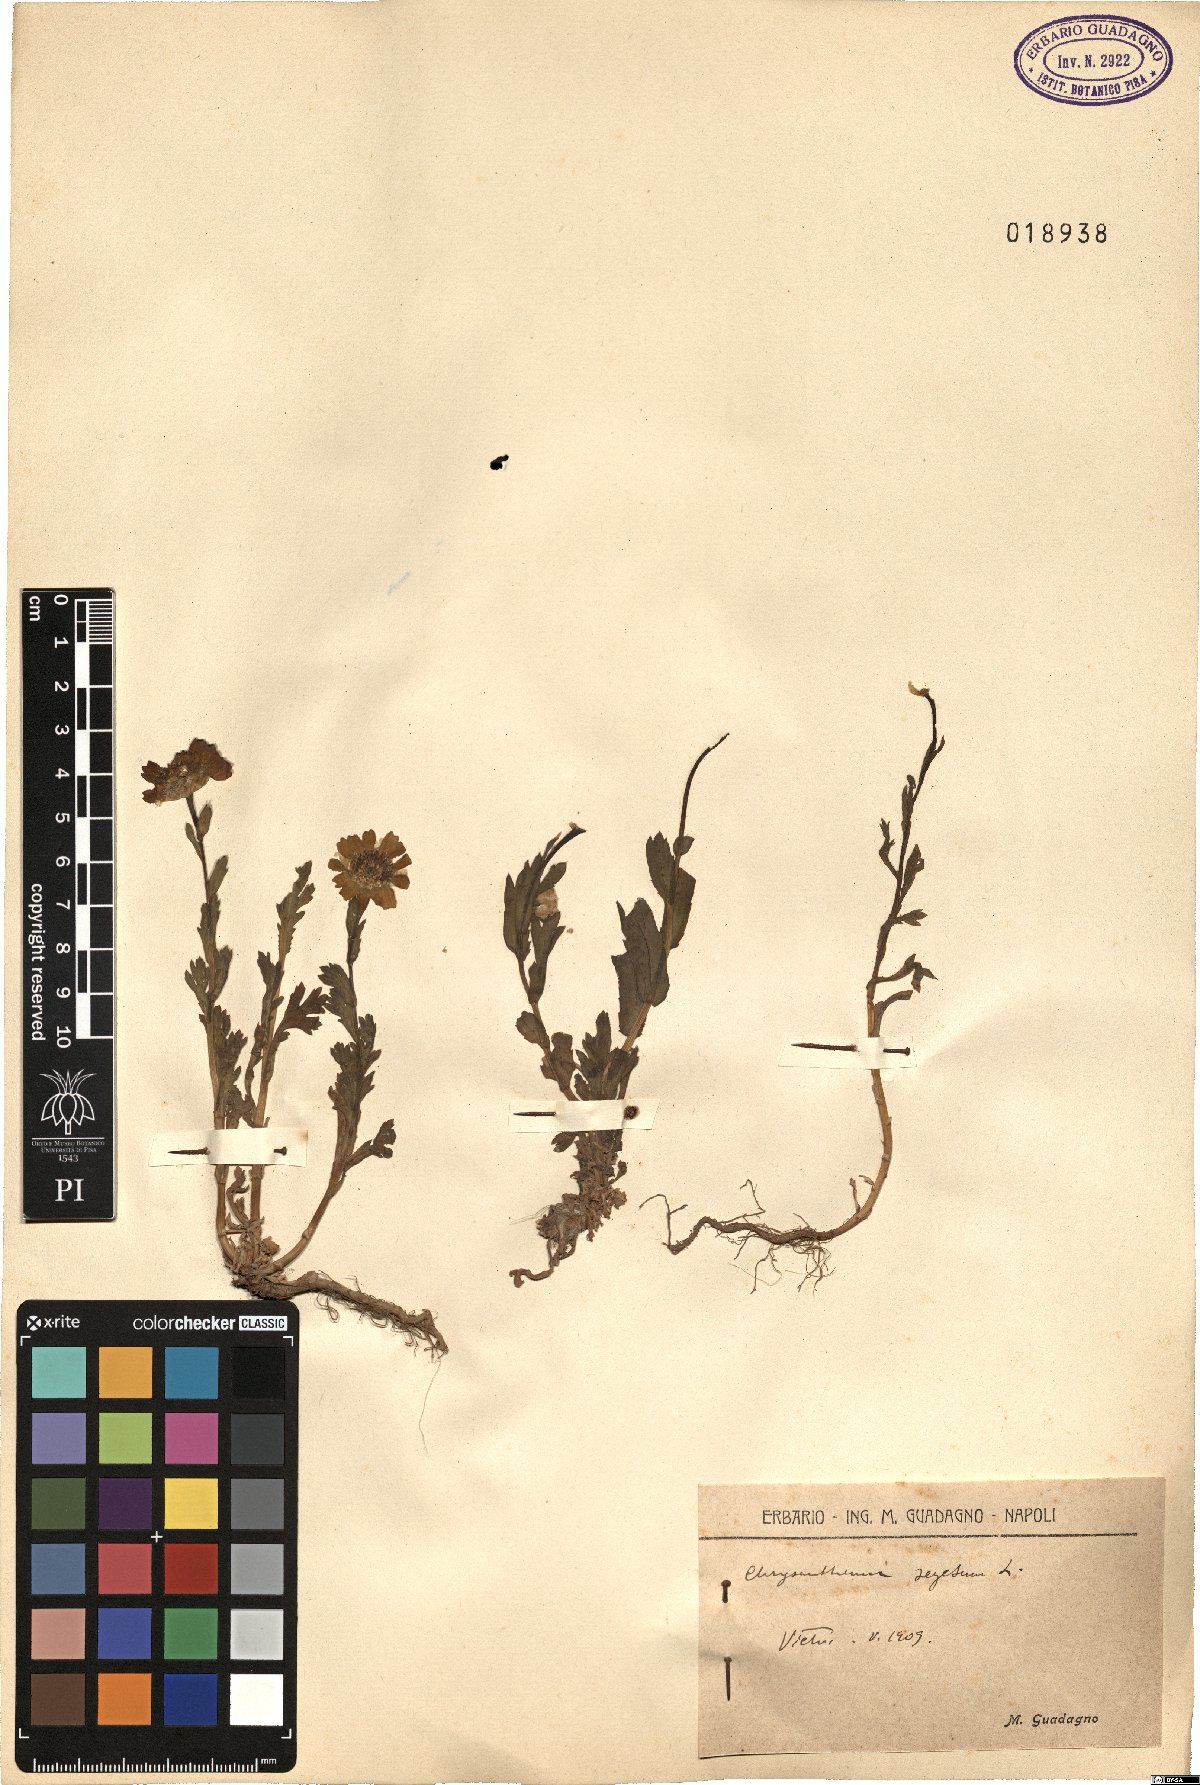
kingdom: Plantae
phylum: Tracheophyta
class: Magnoliopsida
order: Asterales
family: Asteraceae
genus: Glebionis
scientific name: Glebionis segetum
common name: Corndaisy
